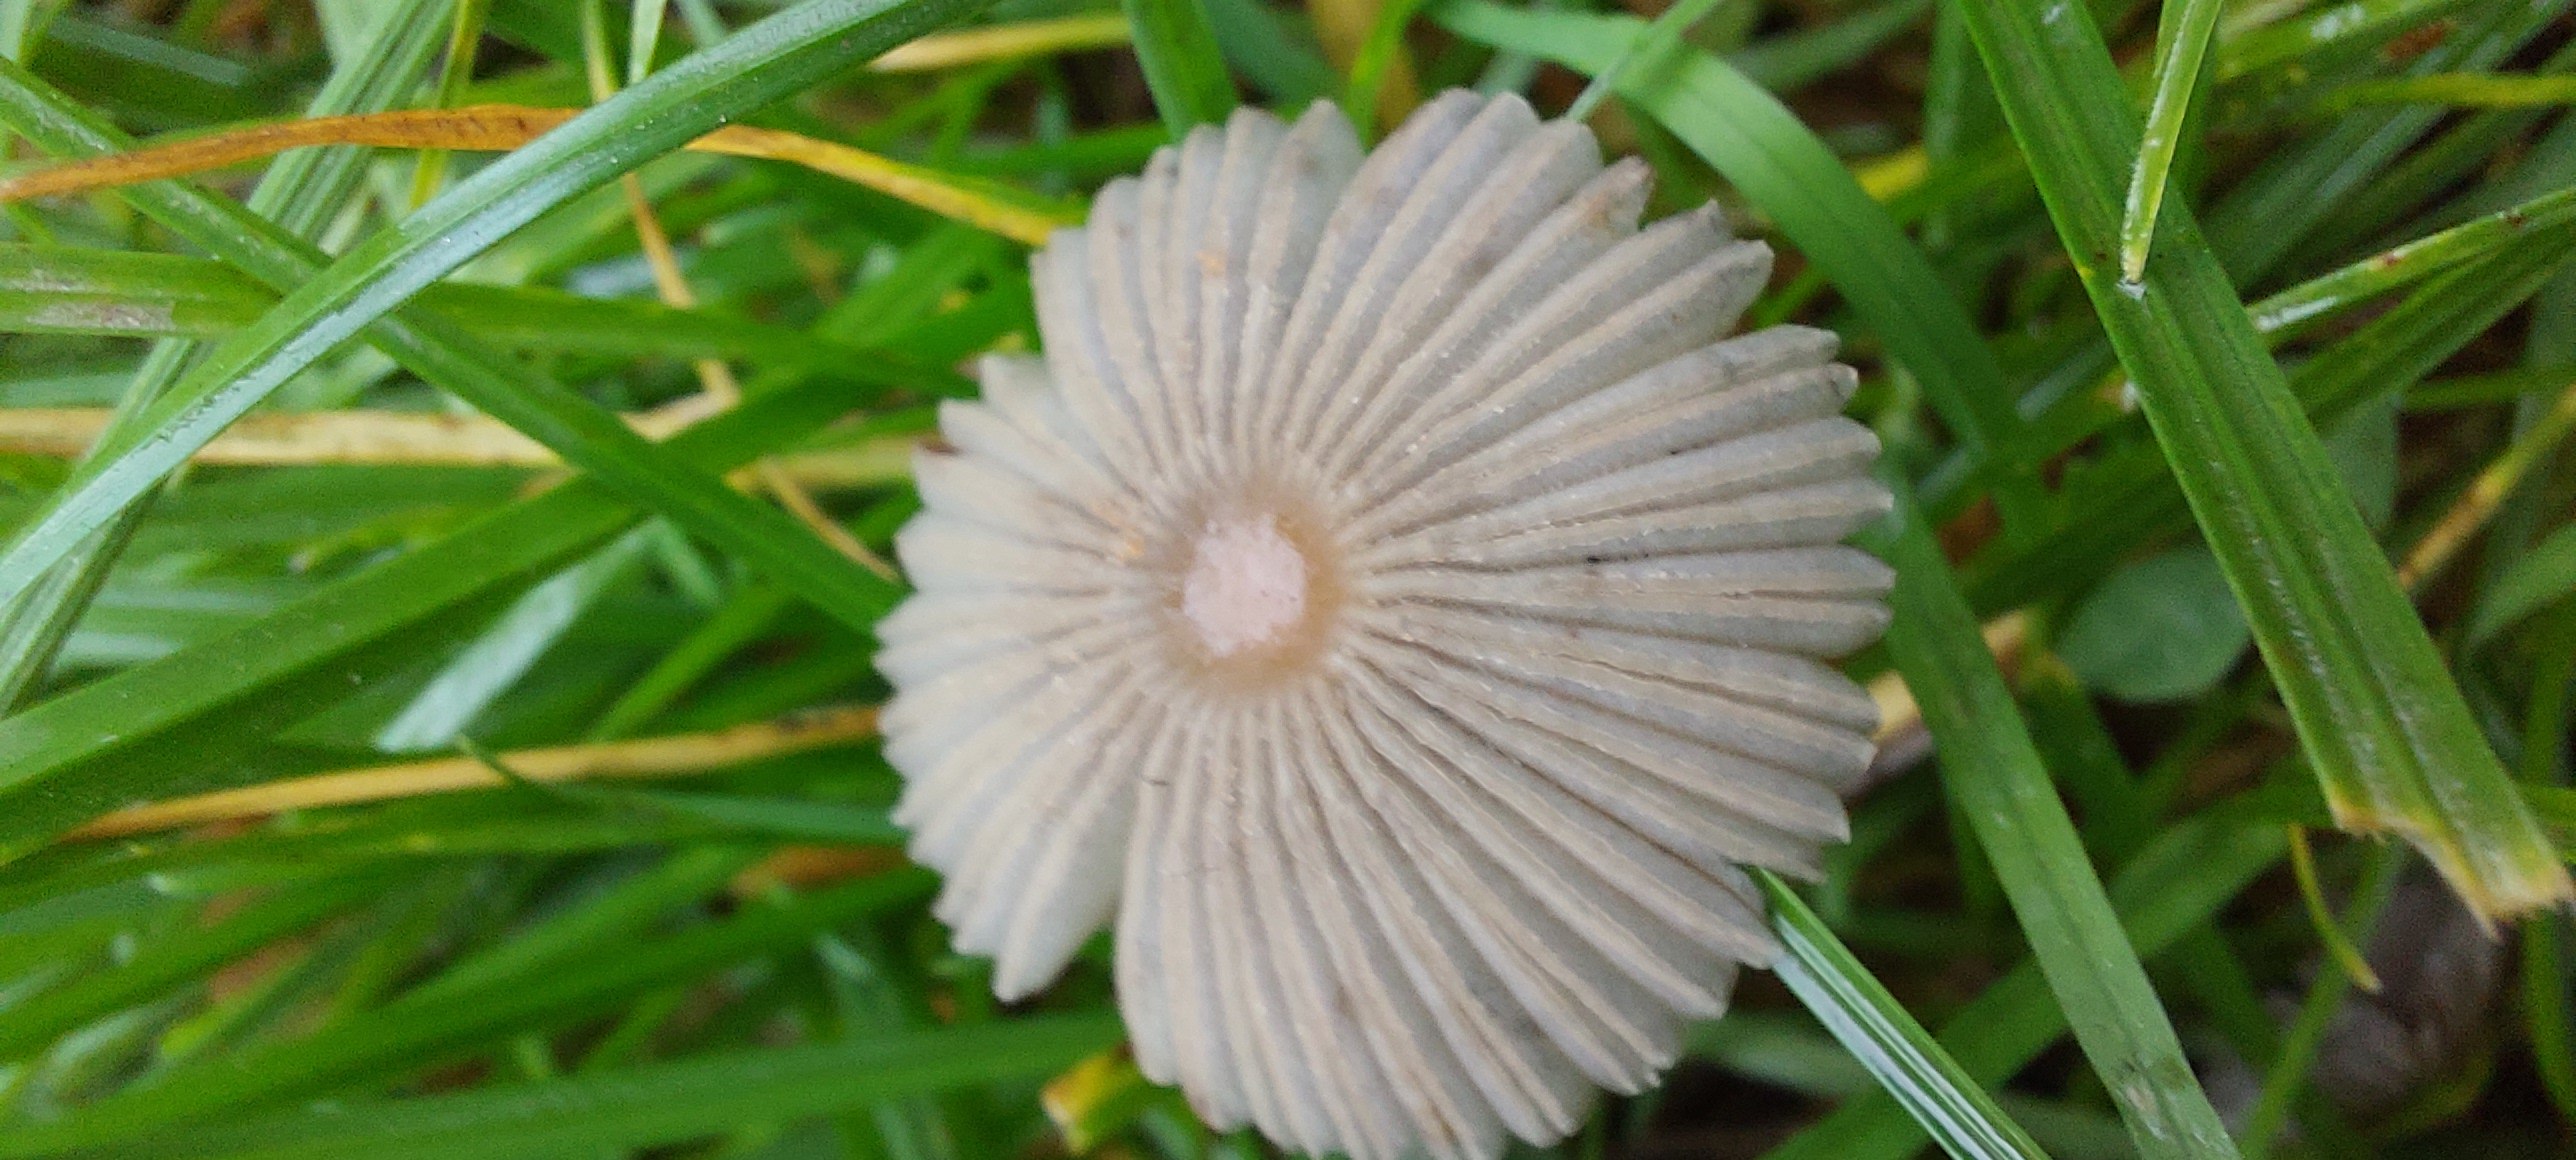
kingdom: Fungi
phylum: Basidiomycota
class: Agaricomycetes
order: Agaricales
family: Psathyrellaceae
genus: Parasola
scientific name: Parasola
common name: hjulhat
